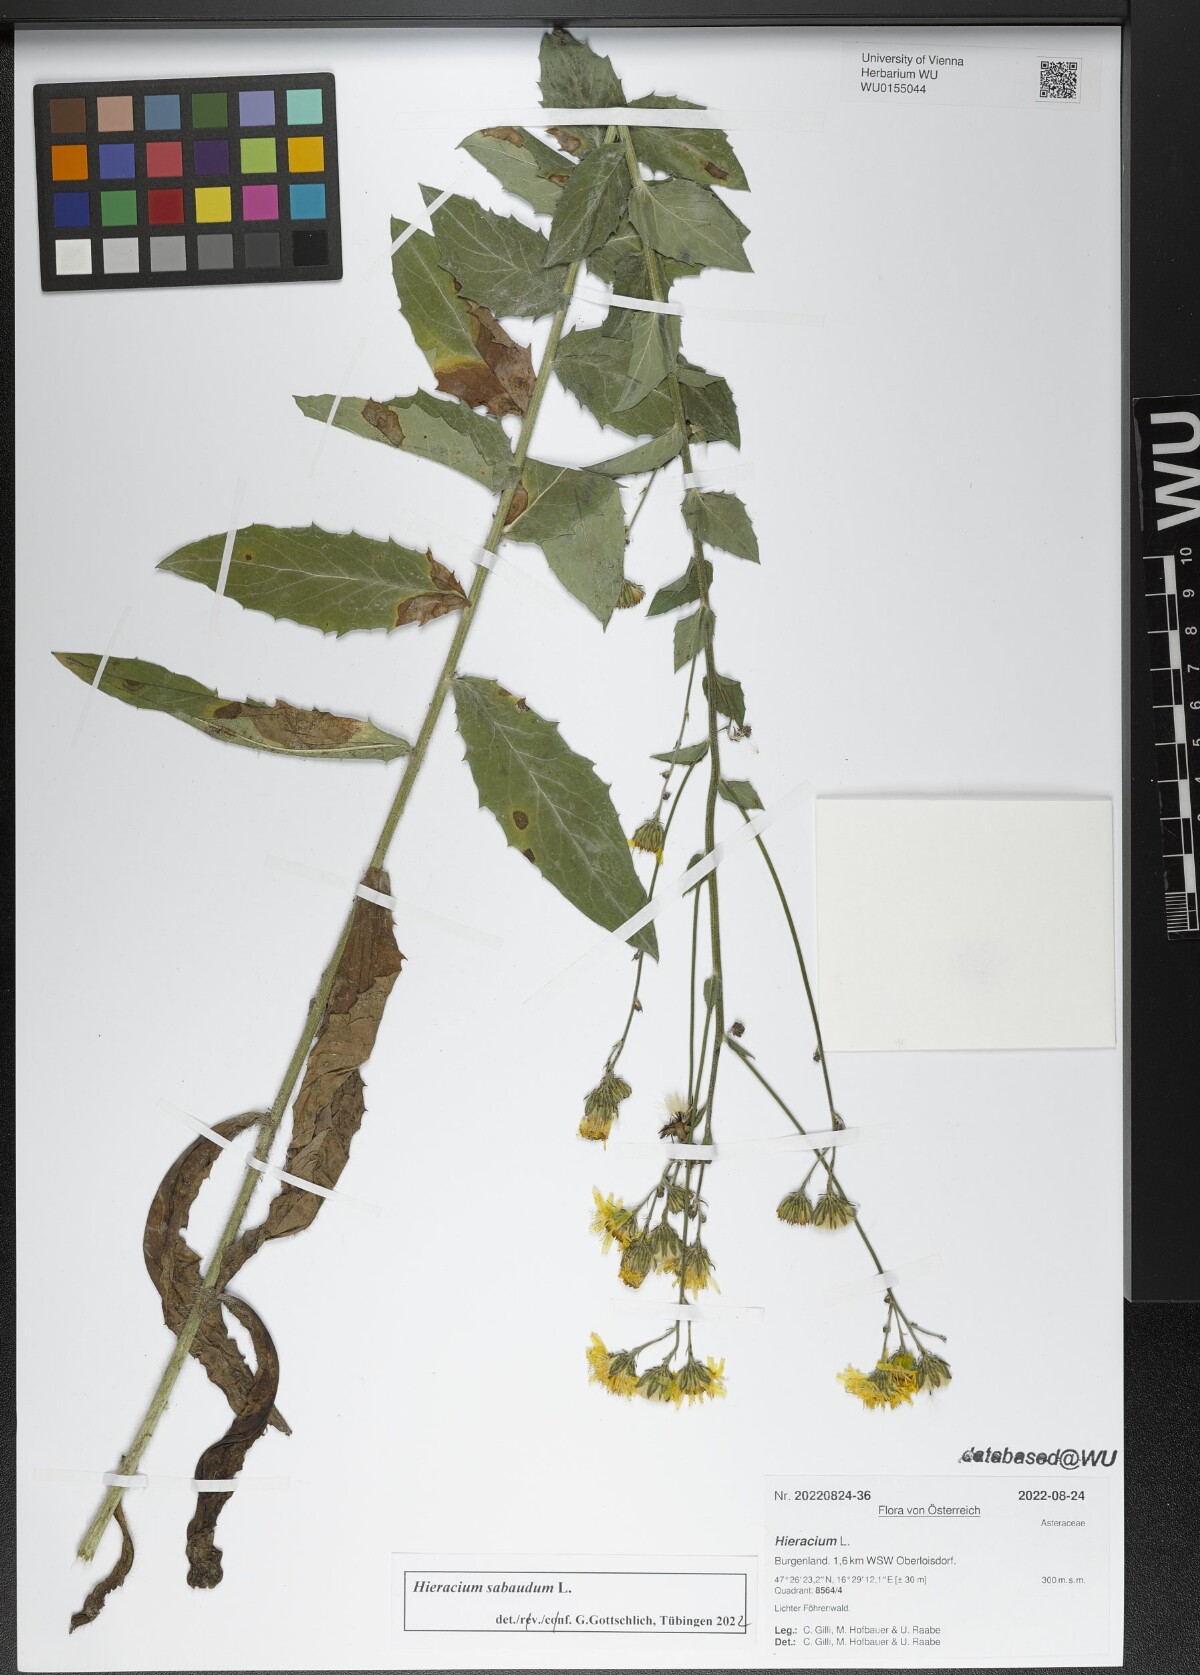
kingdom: Plantae
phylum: Tracheophyta
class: Magnoliopsida
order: Asterales
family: Asteraceae
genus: Hieracium
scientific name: Hieracium sabaudum
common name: New england hawkweed
